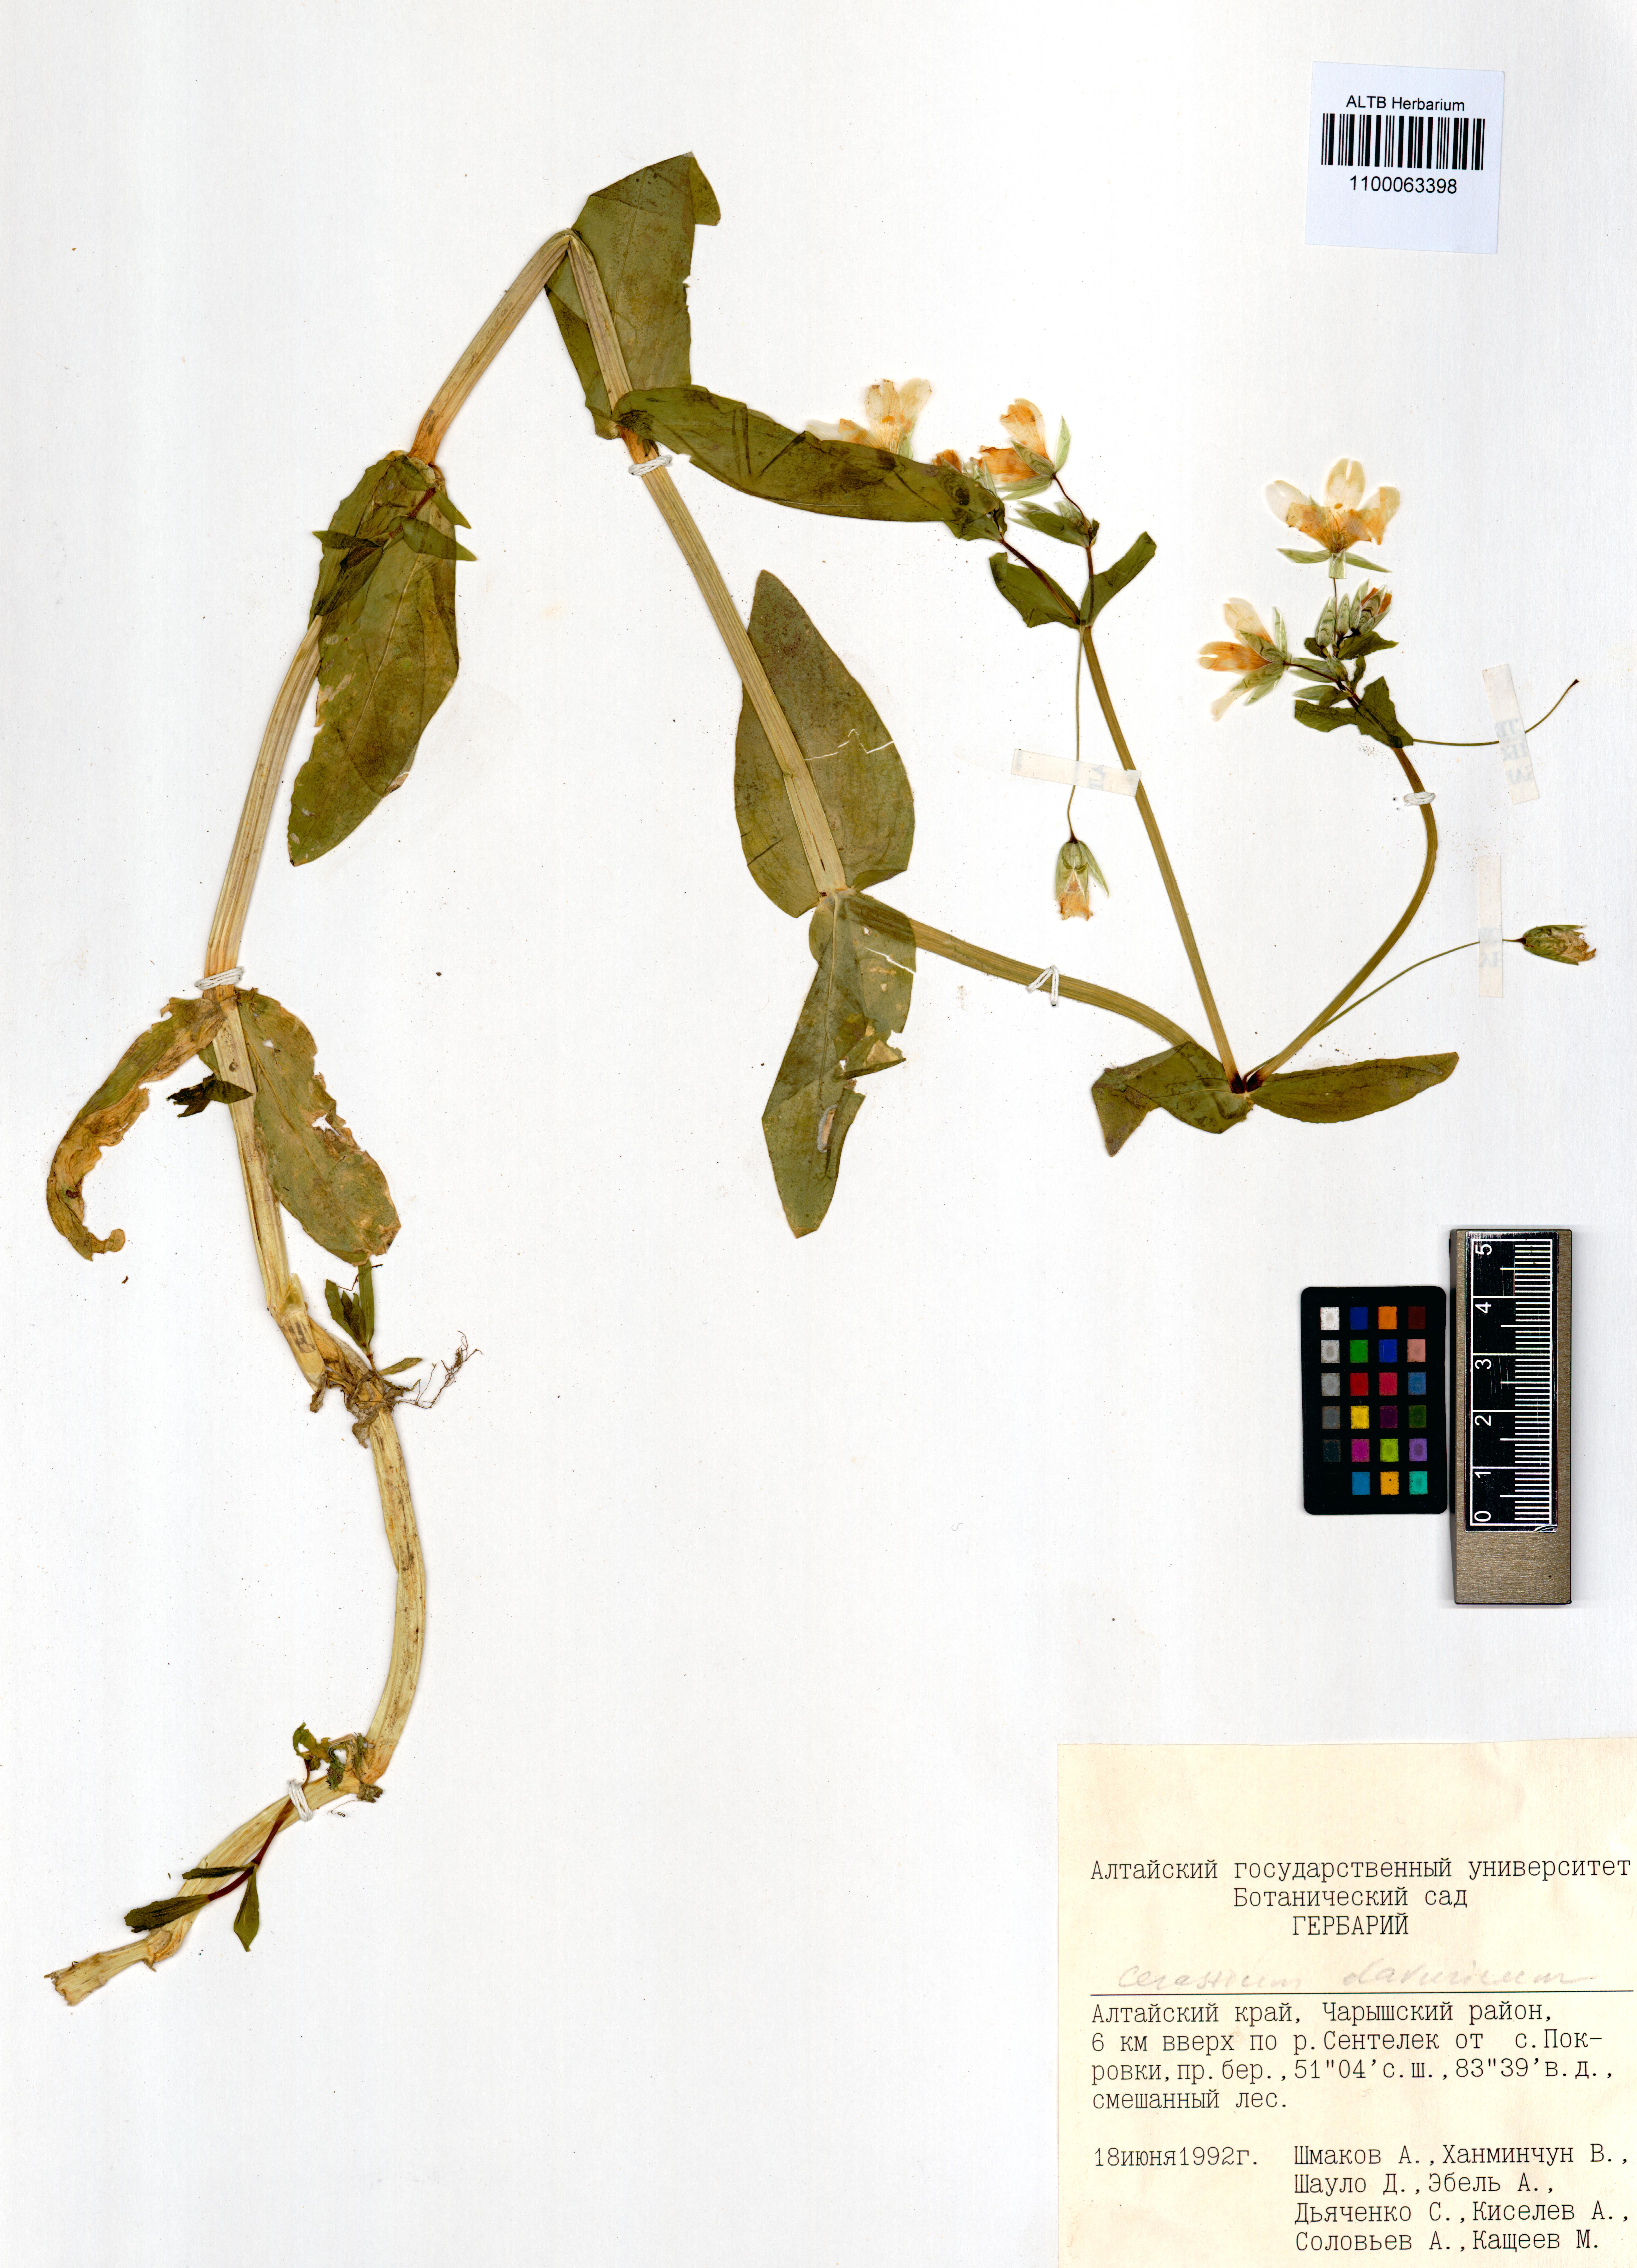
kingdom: Plantae
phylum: Tracheophyta
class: Magnoliopsida
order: Caryophyllales
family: Caryophyllaceae
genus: Cerastium
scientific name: Cerastium davuricum
